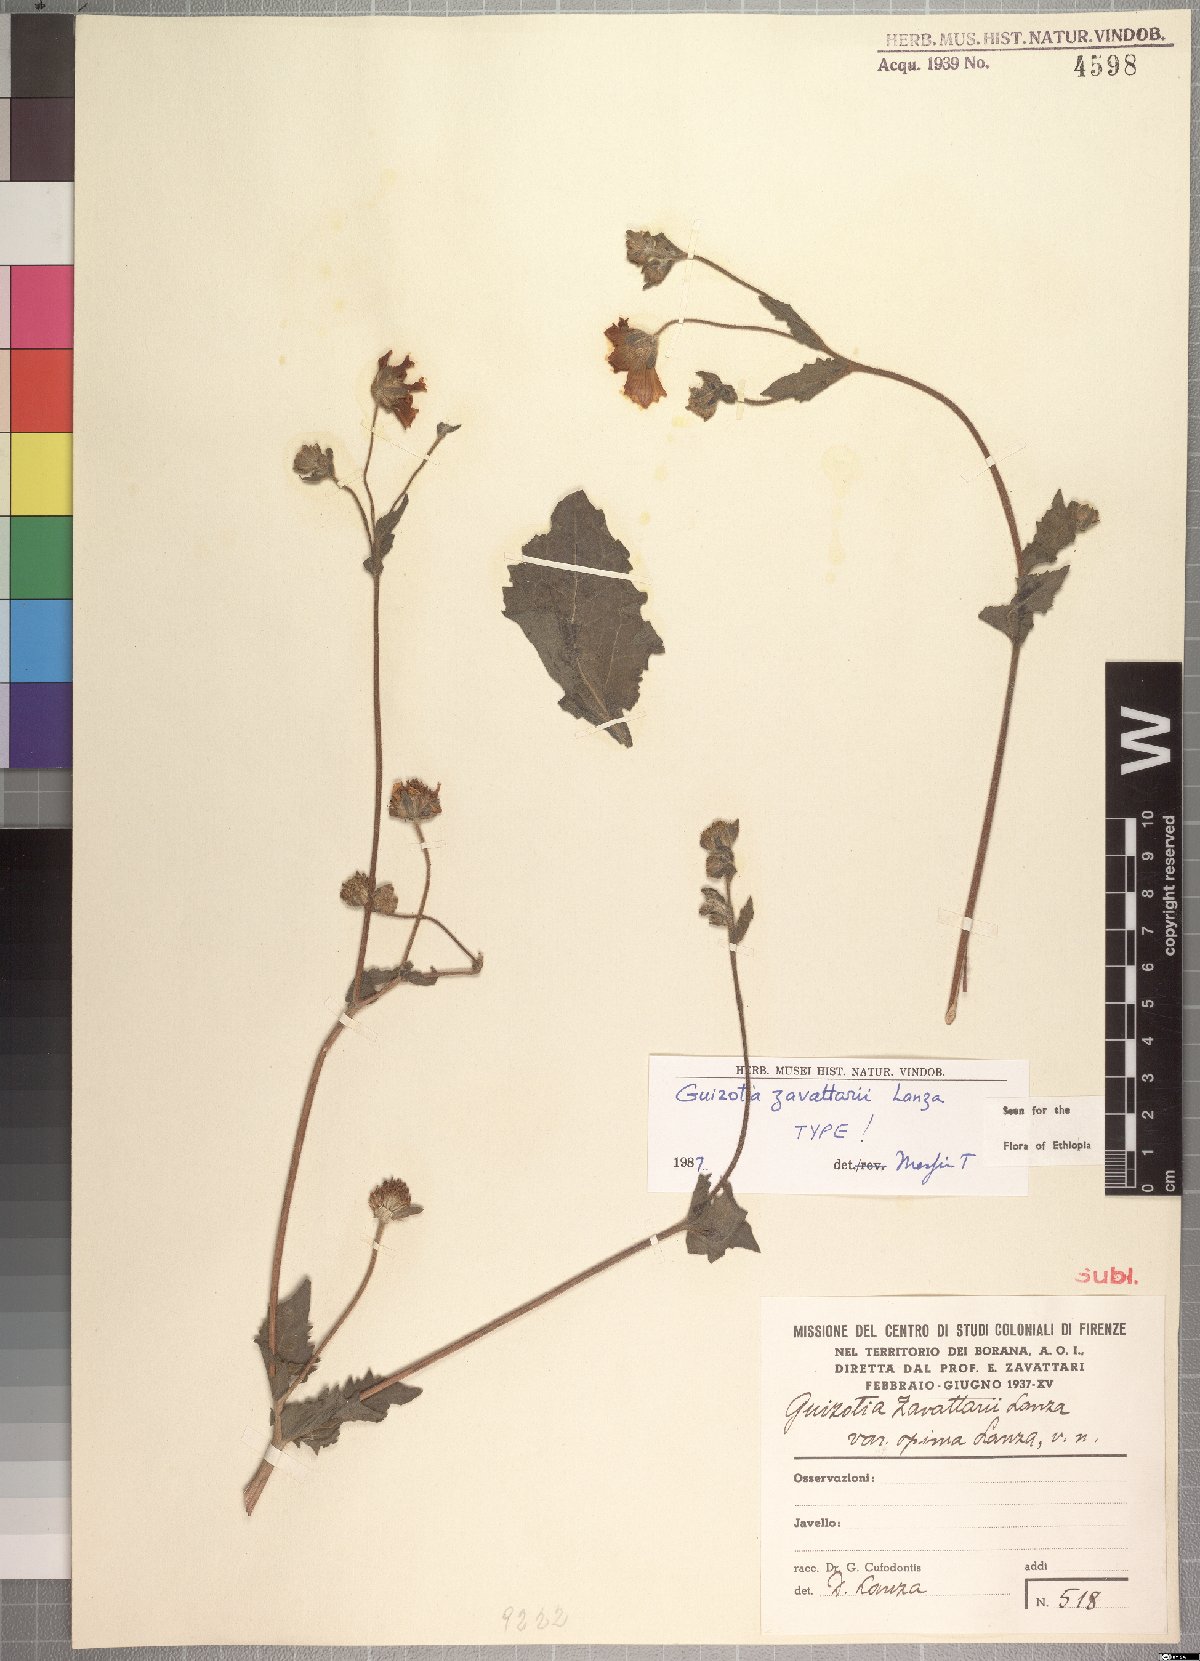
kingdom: Plantae
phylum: Tracheophyta
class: Magnoliopsida
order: Asterales
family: Asteraceae
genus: Guizotia
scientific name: Guizotia zavattarii
